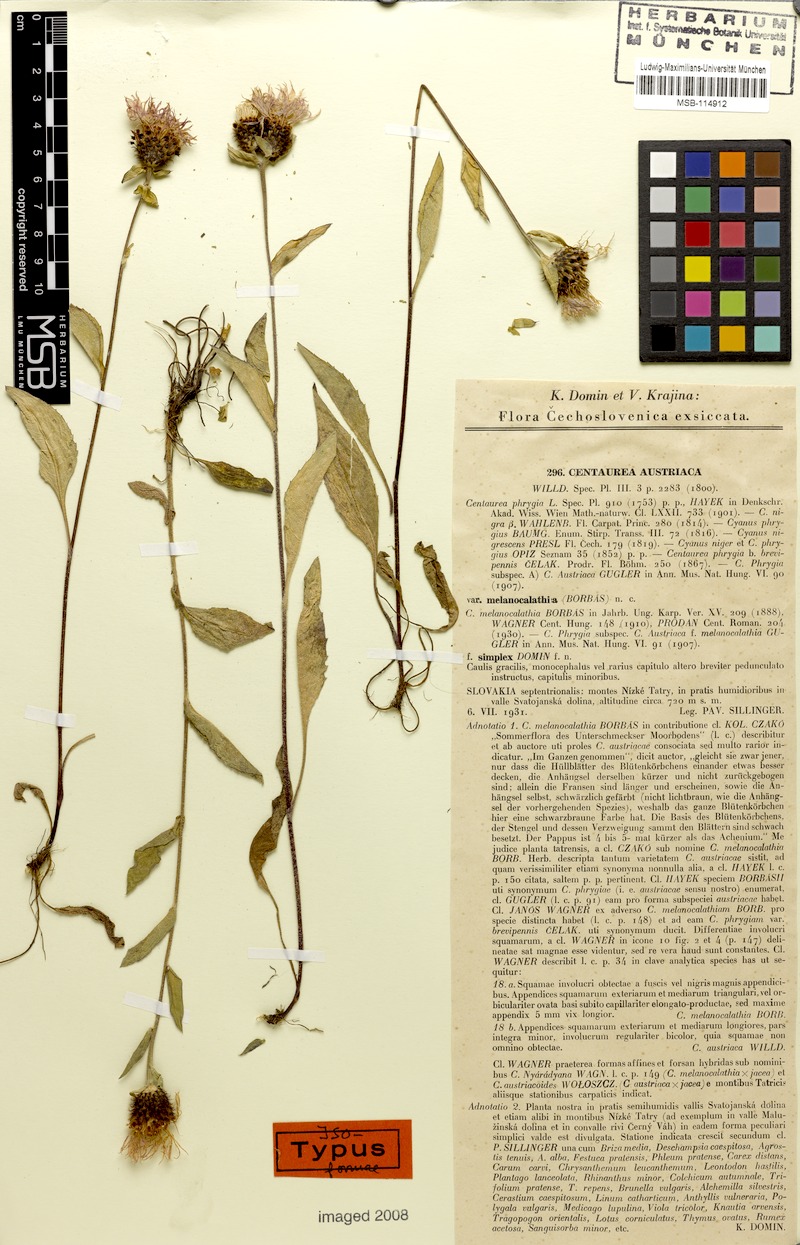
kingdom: Plantae
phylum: Tracheophyta
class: Magnoliopsida
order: Asterales
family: Asteraceae
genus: Centaurea
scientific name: Centaurea nigra
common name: Lesser knapweed
